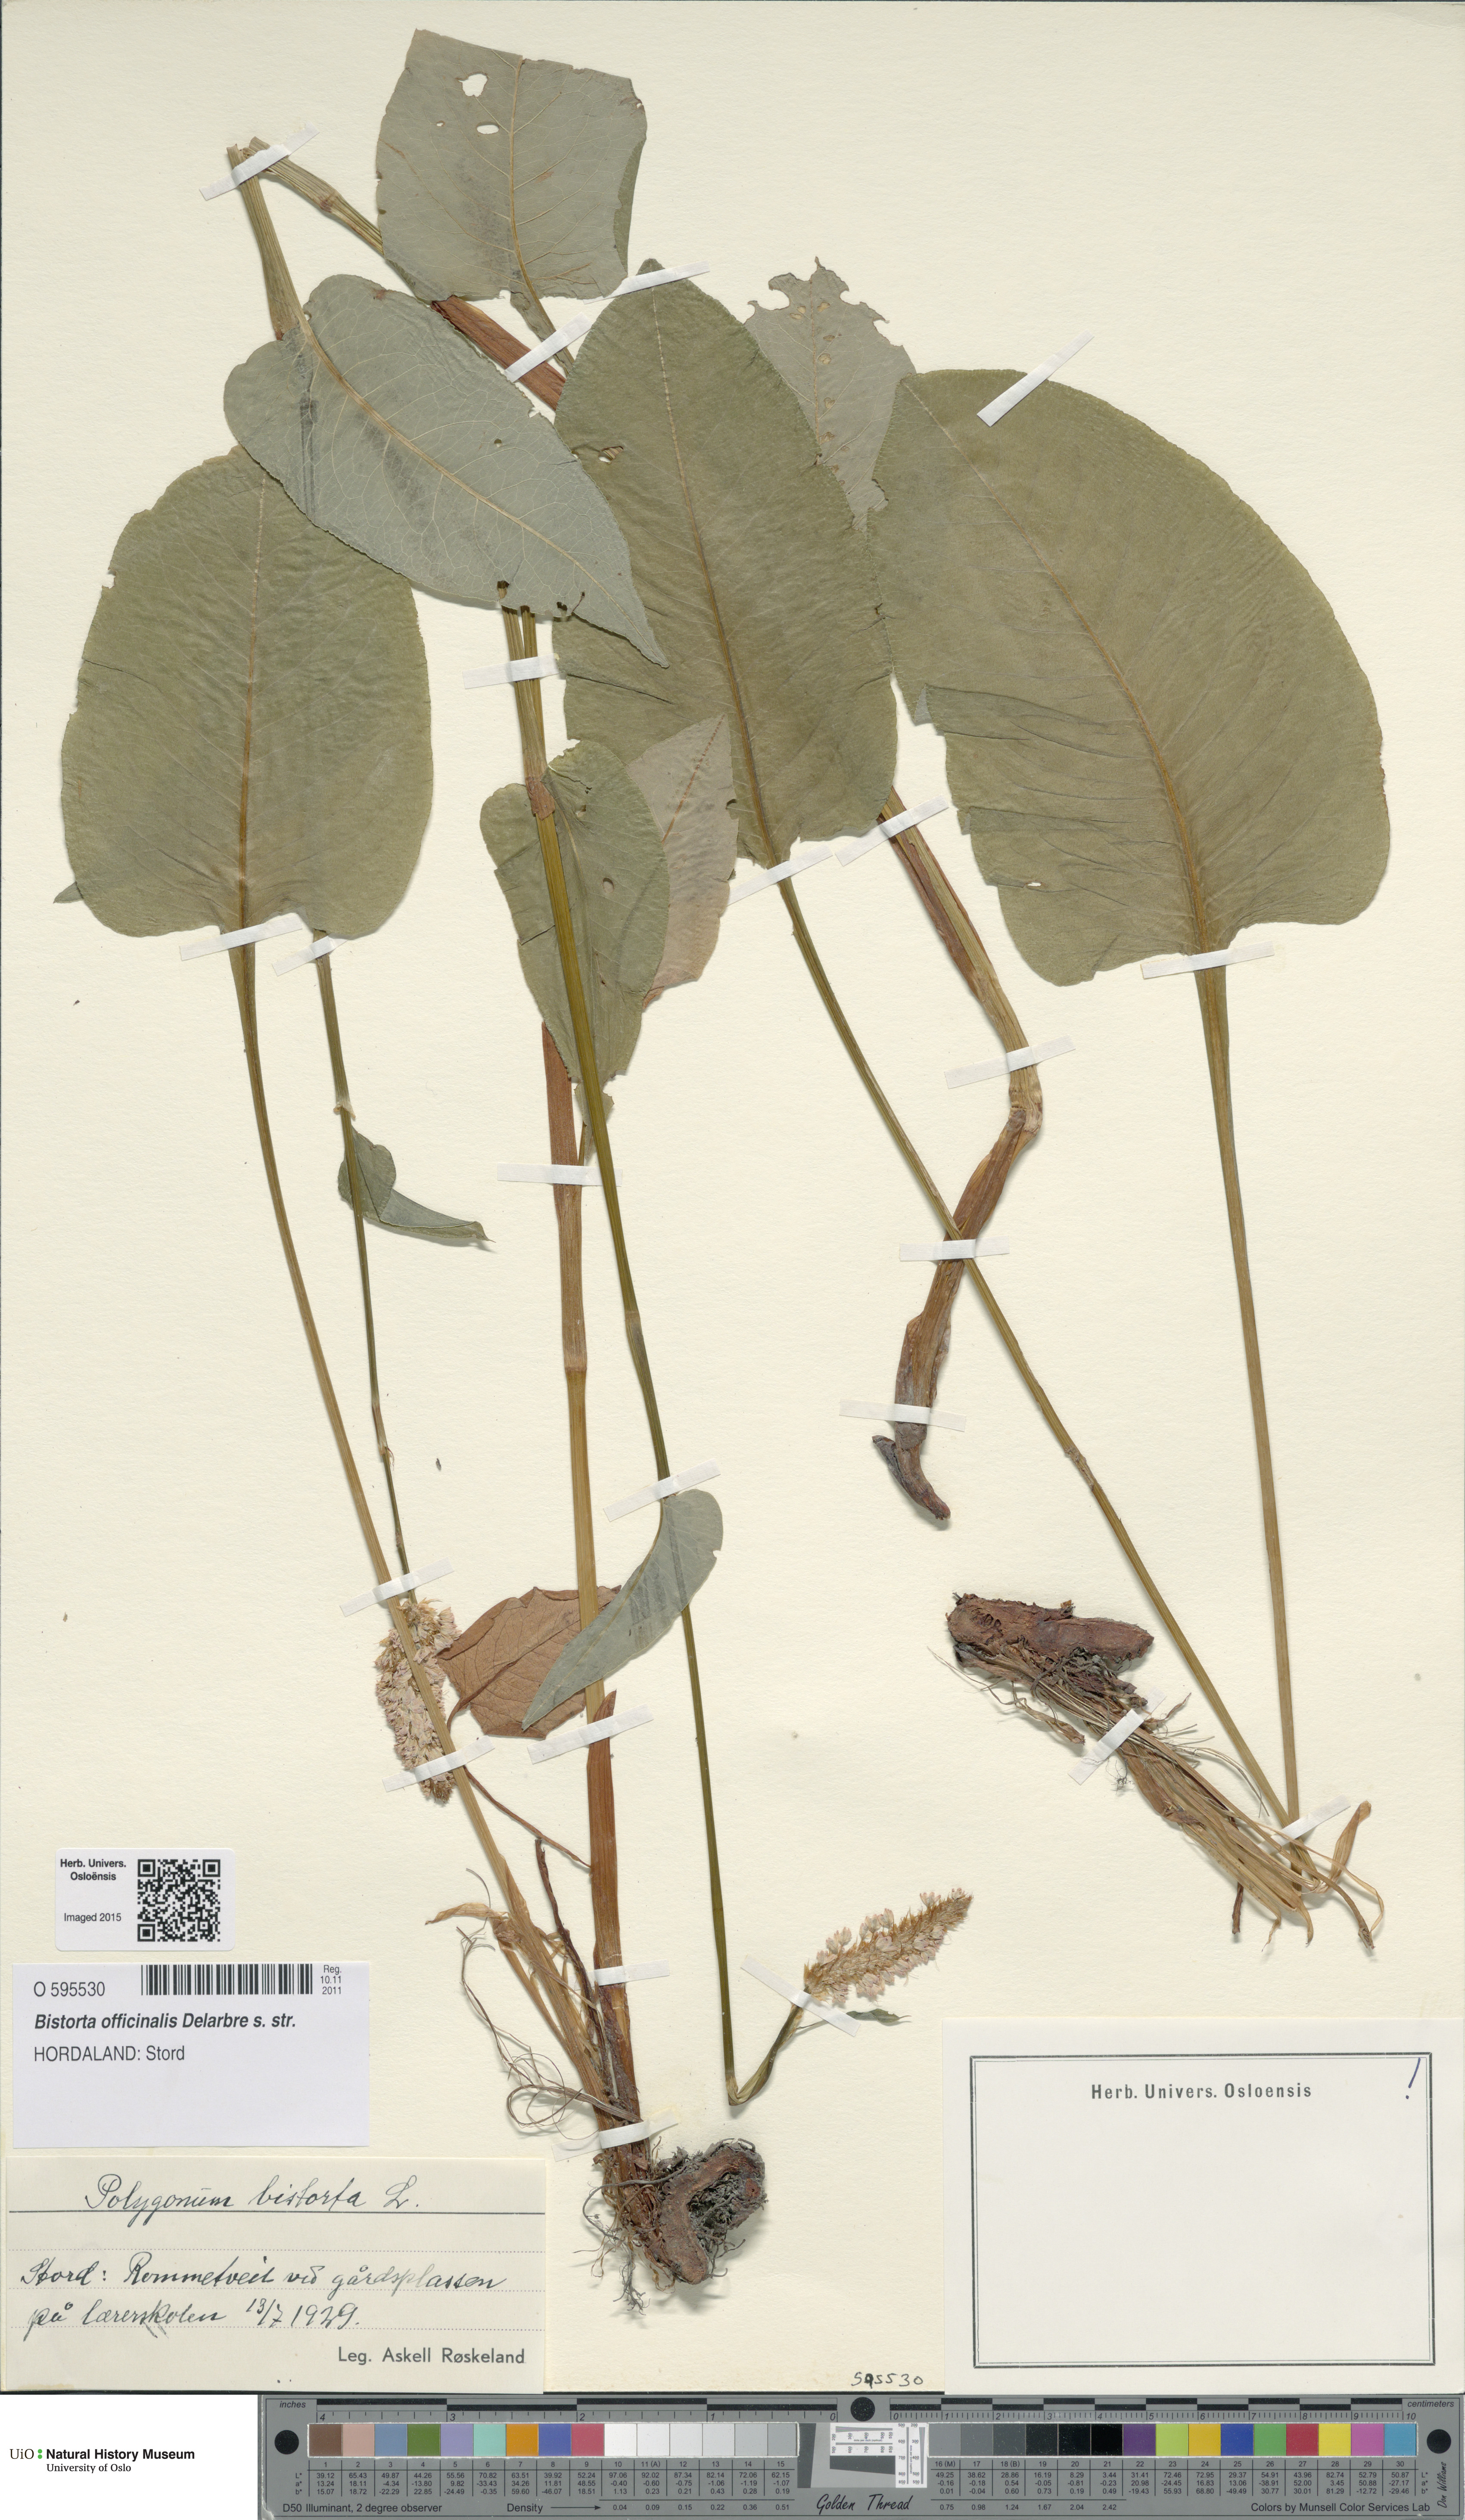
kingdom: Plantae
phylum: Tracheophyta
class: Magnoliopsida
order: Caryophyllales
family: Polygonaceae
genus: Bistorta
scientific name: Bistorta officinalis
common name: Common bistort
